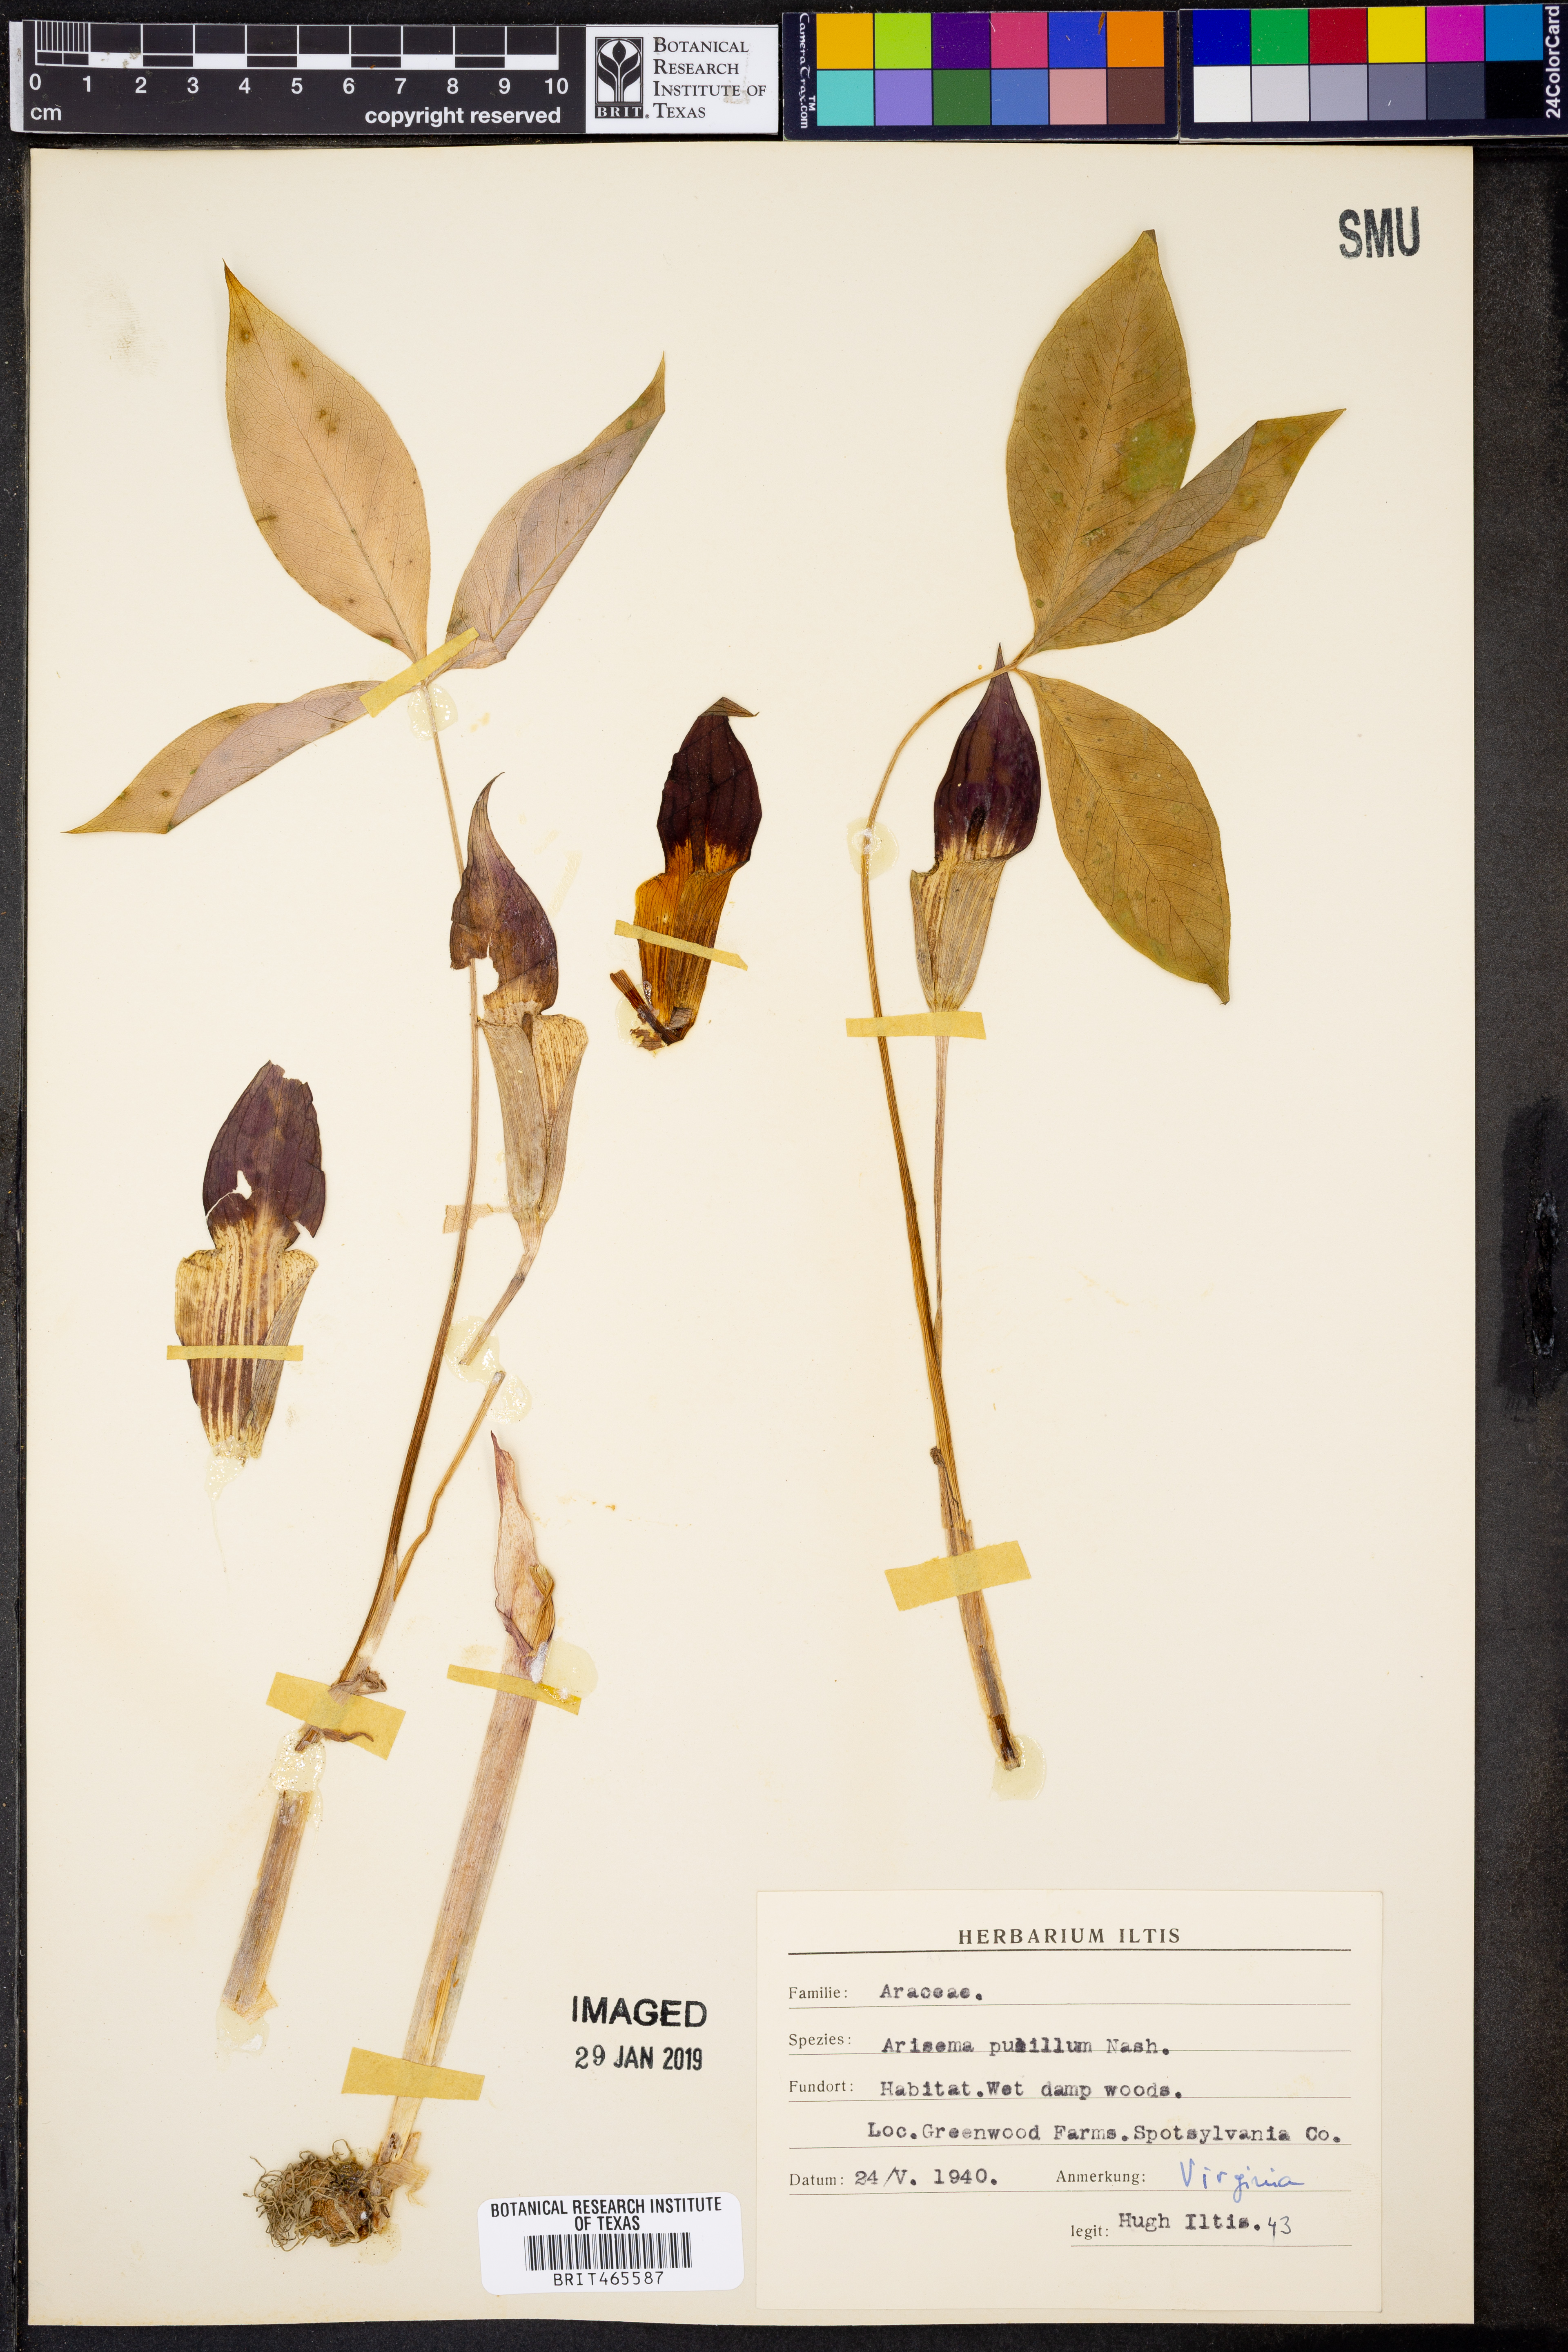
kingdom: Plantae
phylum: Tracheophyta
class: Liliopsida
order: Alismatales
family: Araceae
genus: Arisaema
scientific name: Arisaema pusillum
